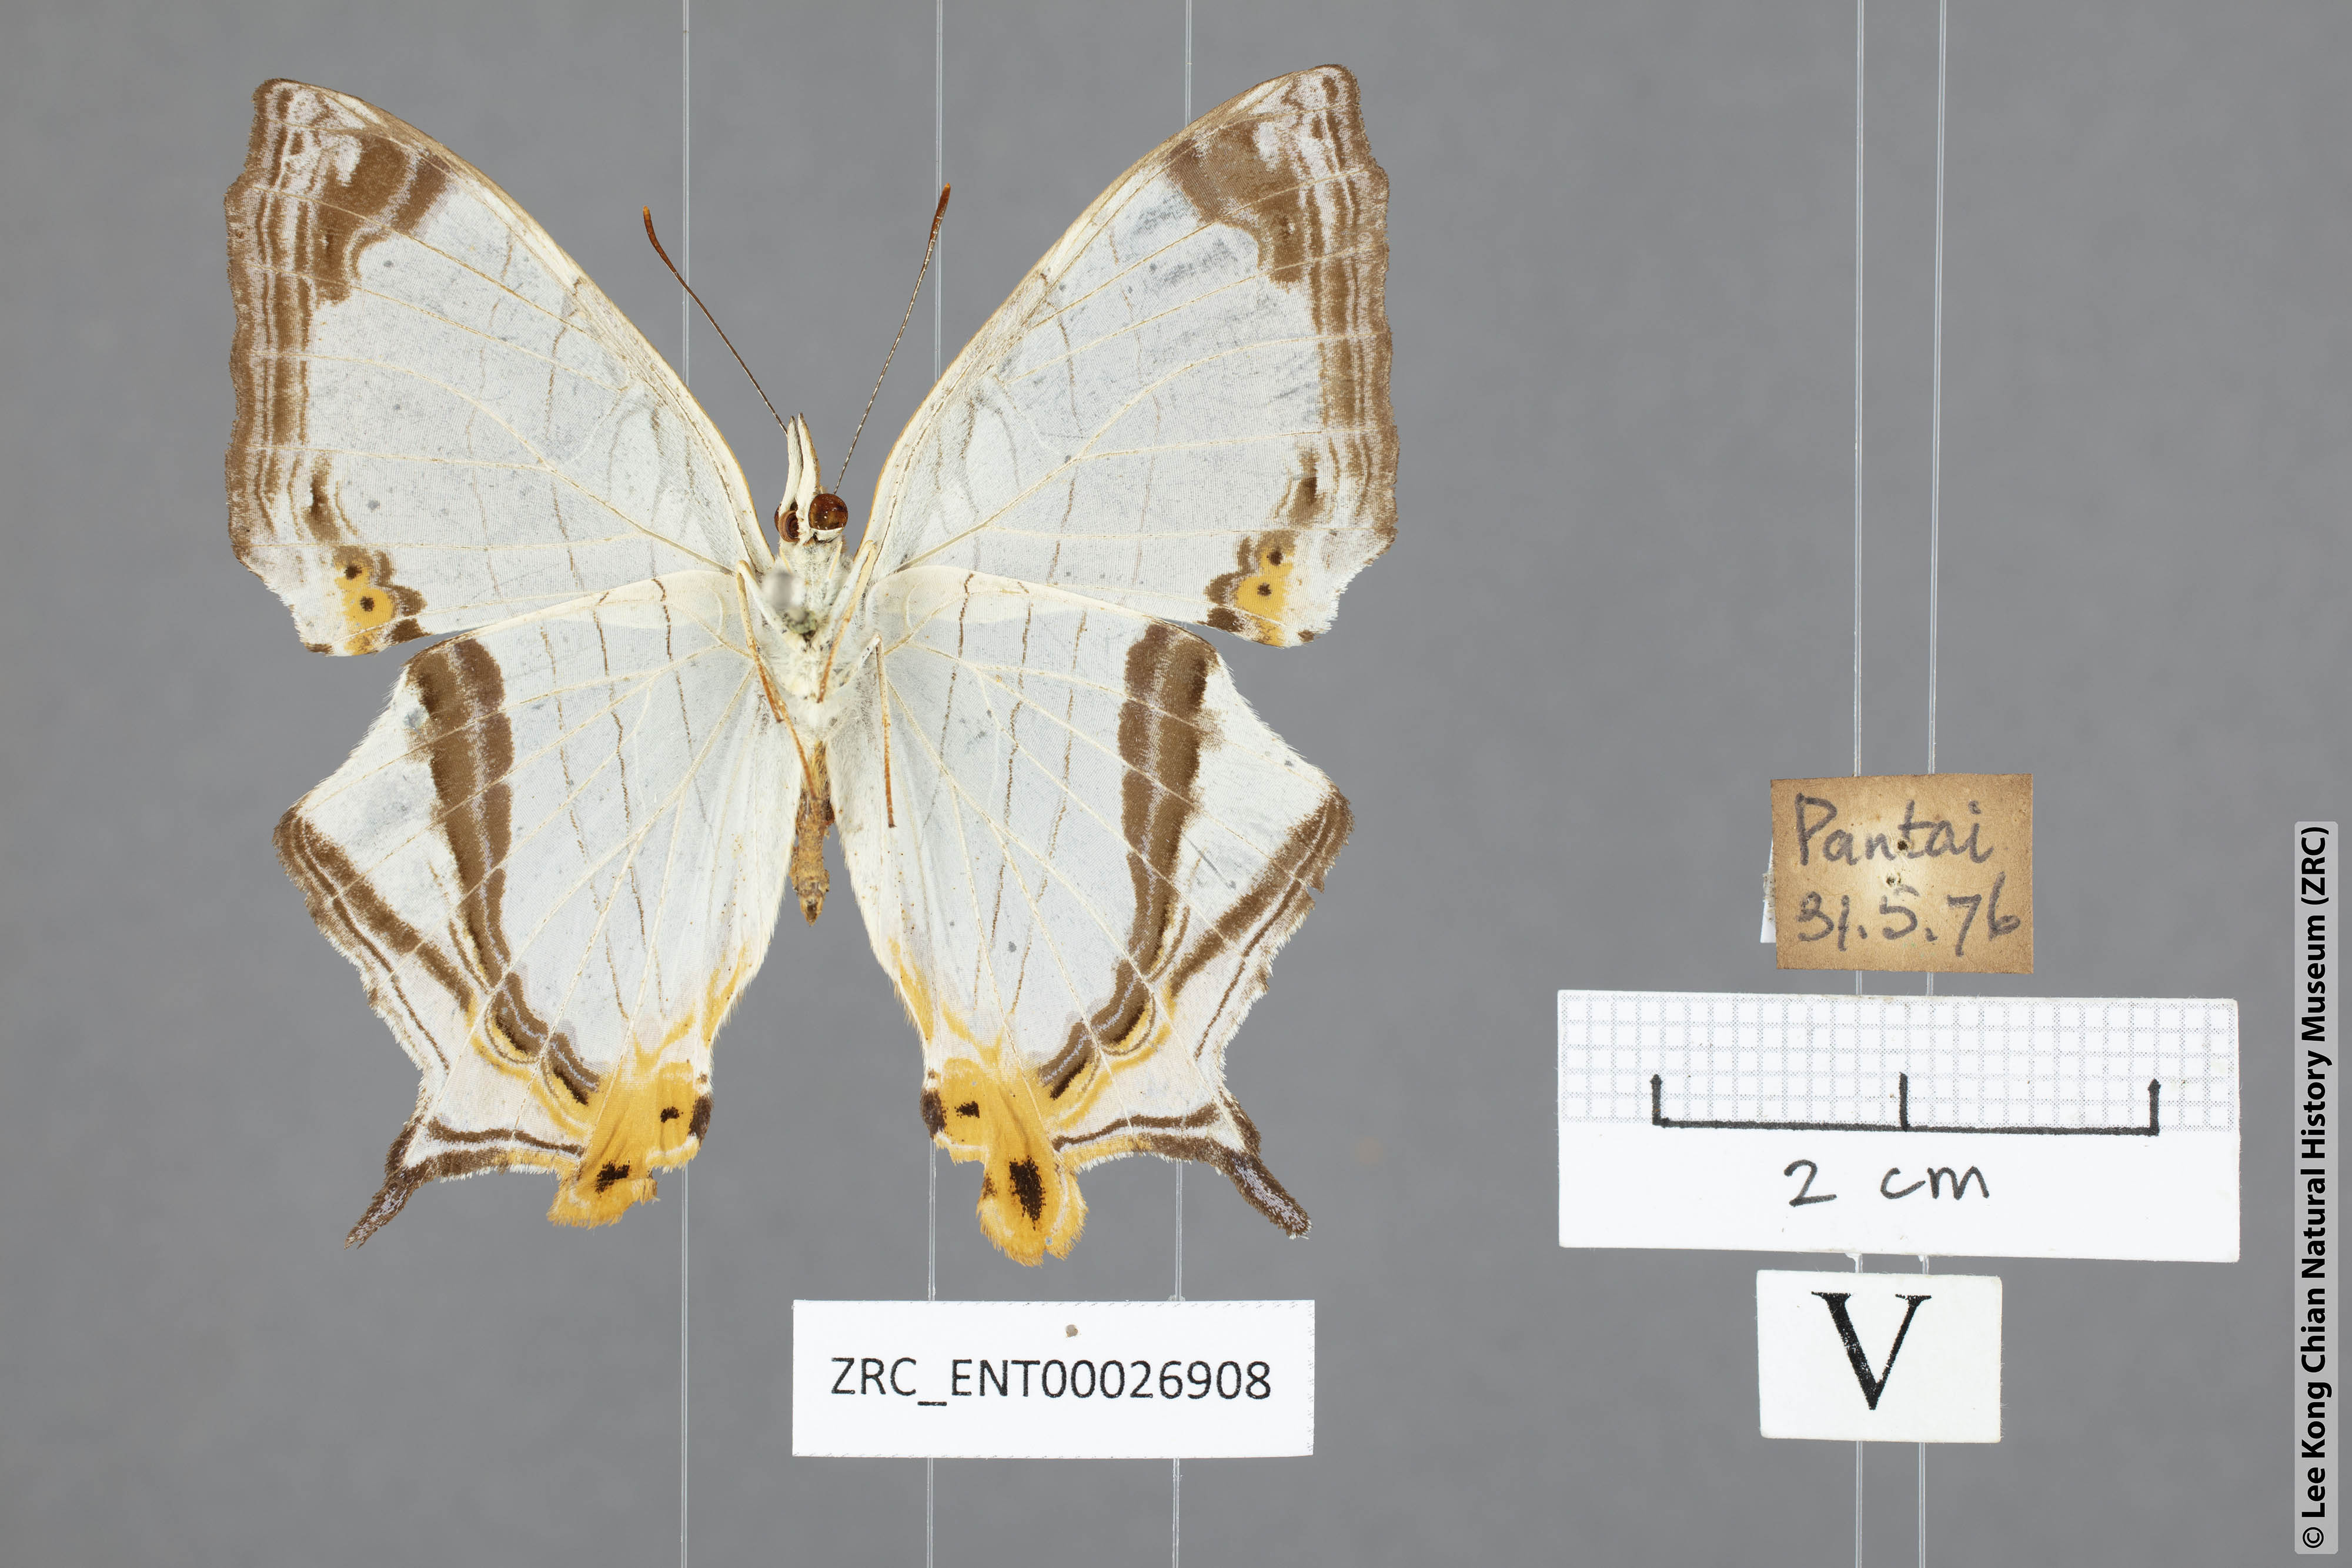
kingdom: Animalia
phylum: Arthropoda
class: Insecta
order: Lepidoptera
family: Nymphalidae
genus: Cyrestis
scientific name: Cyrestis nivea
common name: Straight line mapwing
